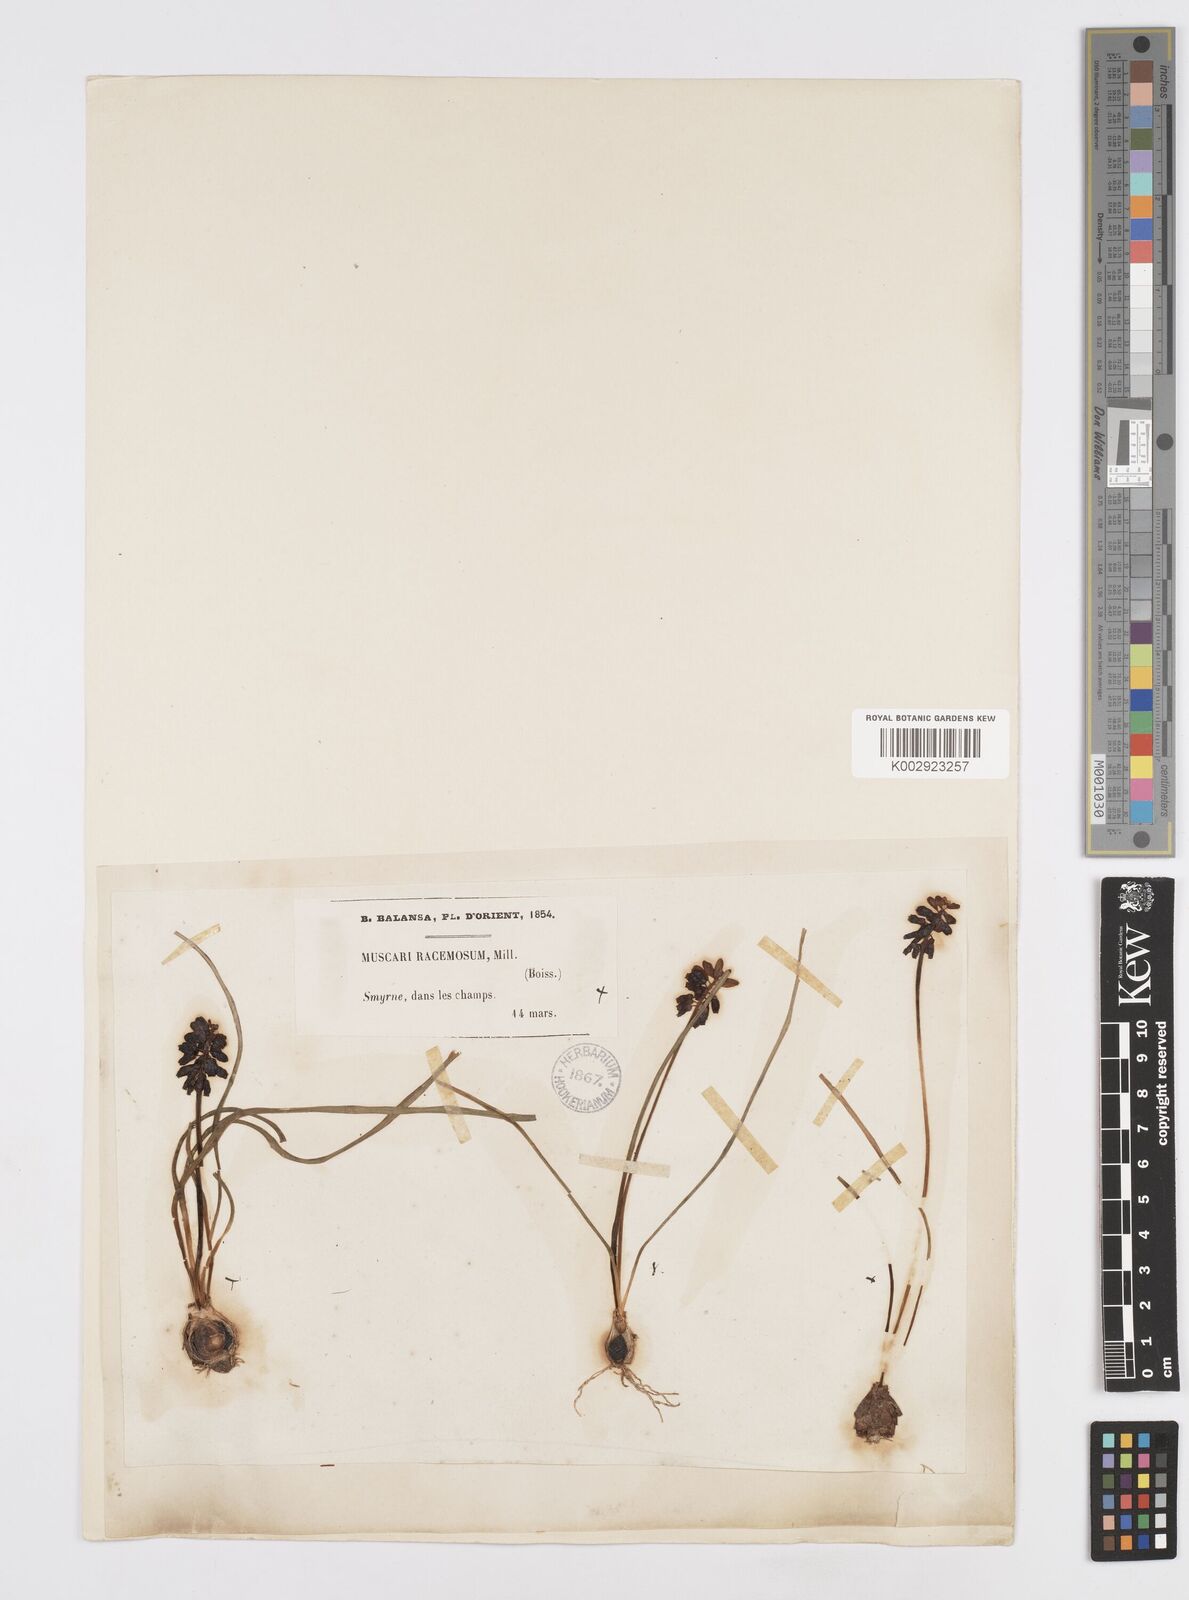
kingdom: Plantae
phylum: Tracheophyta
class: Liliopsida
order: Asparagales
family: Asparagaceae
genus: Muscari
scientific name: Muscari neglectum
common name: Grape-hyacinth
